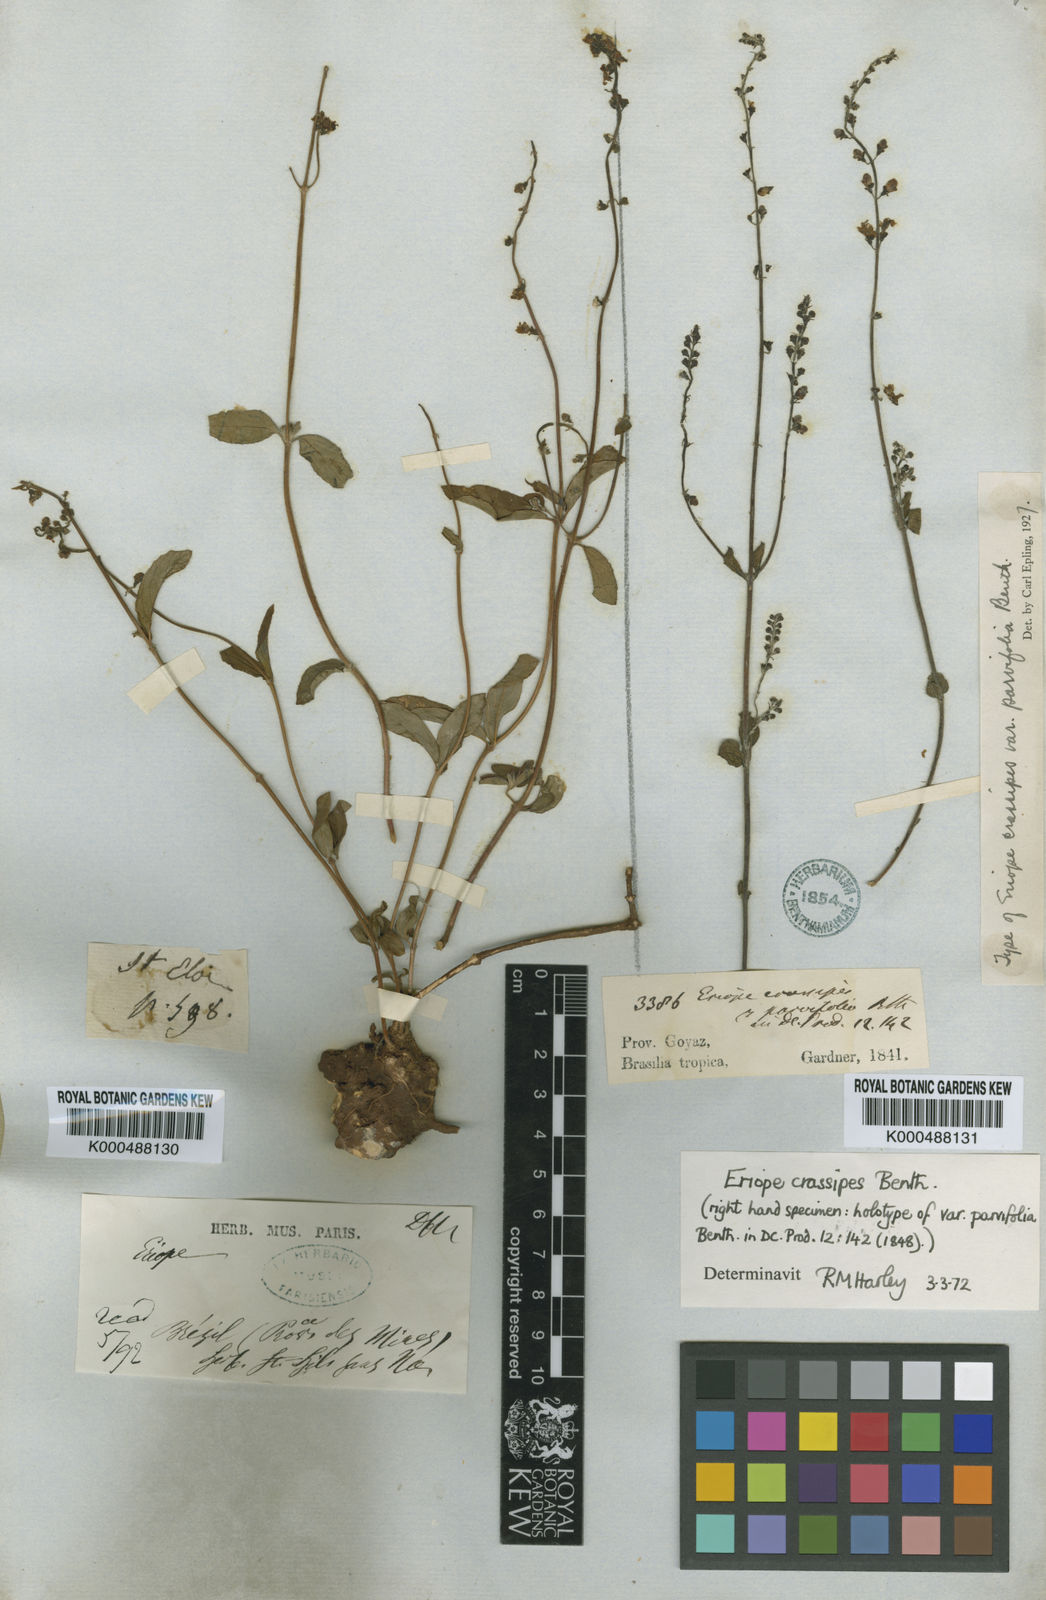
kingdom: Plantae
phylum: Tracheophyta
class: Magnoliopsida
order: Lamiales
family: Lamiaceae
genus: Eriope
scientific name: Eriope crassipes
